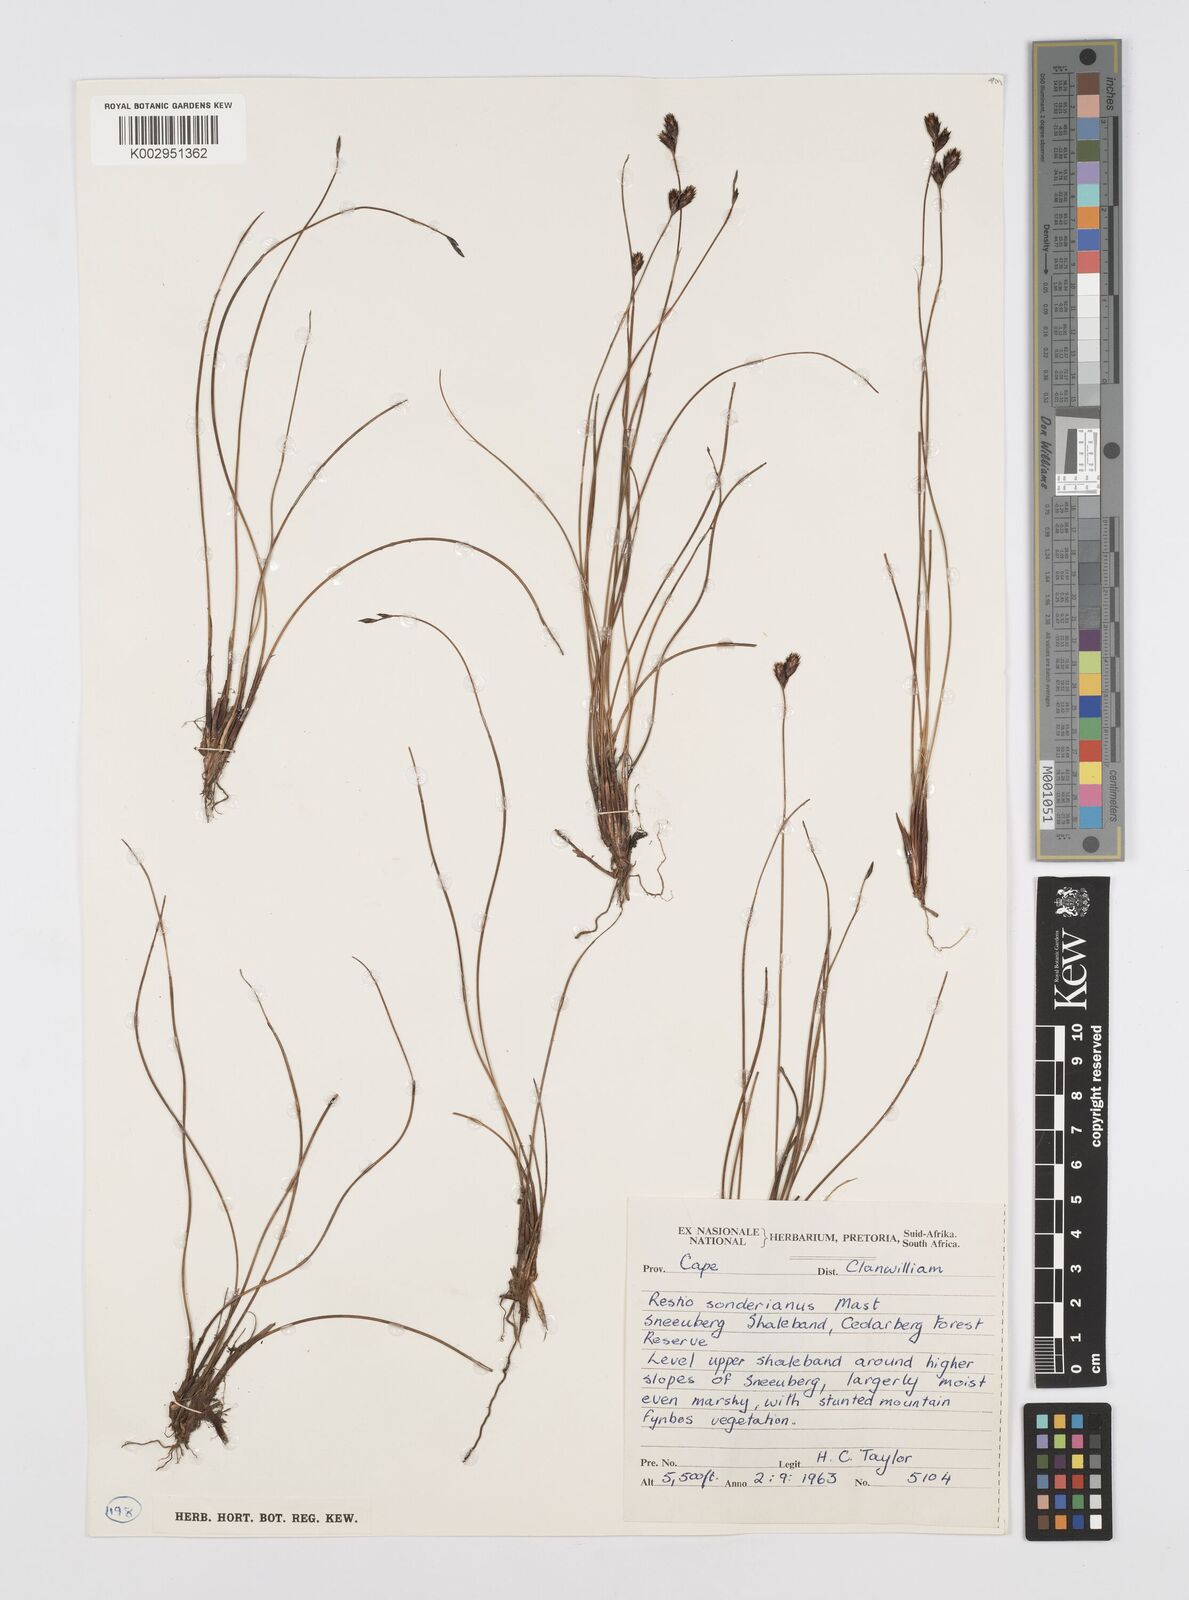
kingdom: Plantae
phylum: Tracheophyta
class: Liliopsida
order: Poales
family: Restionaceae
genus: Restio
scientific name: Restio pedicellatus
